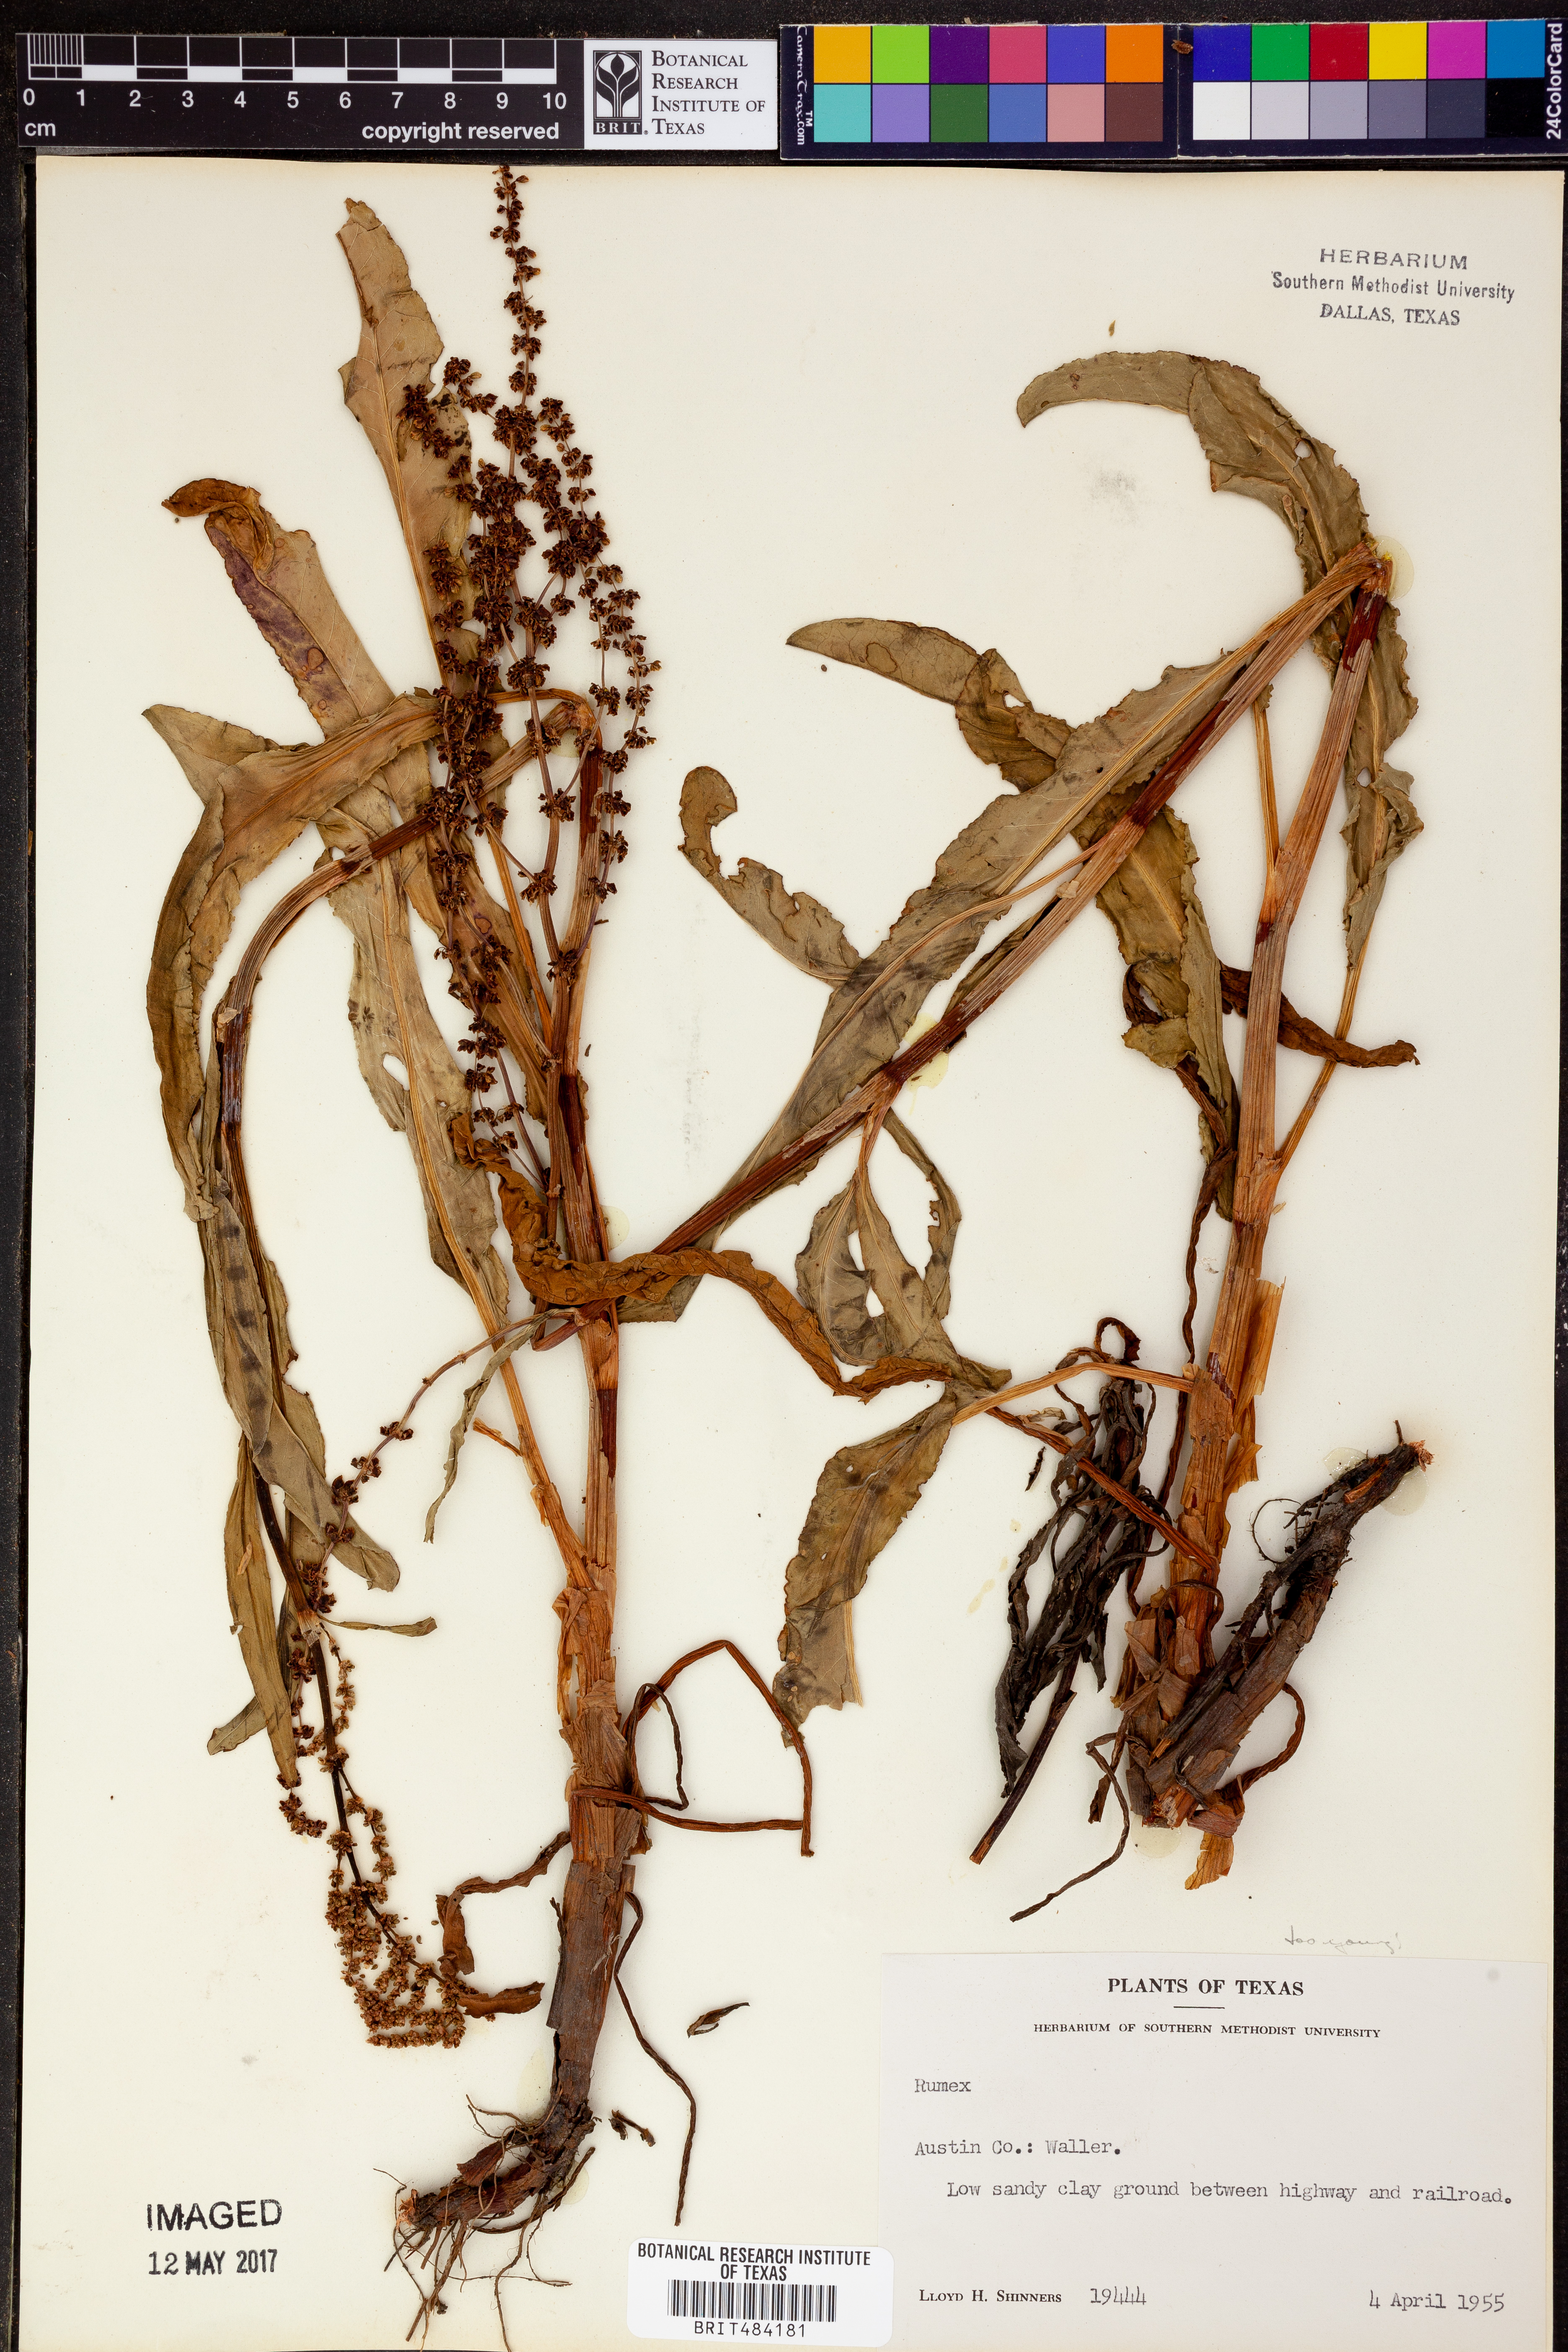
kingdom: Plantae
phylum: Tracheophyta
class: Magnoliopsida
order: Caryophyllales
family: Polygonaceae
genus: Rumex
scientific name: Rumex
